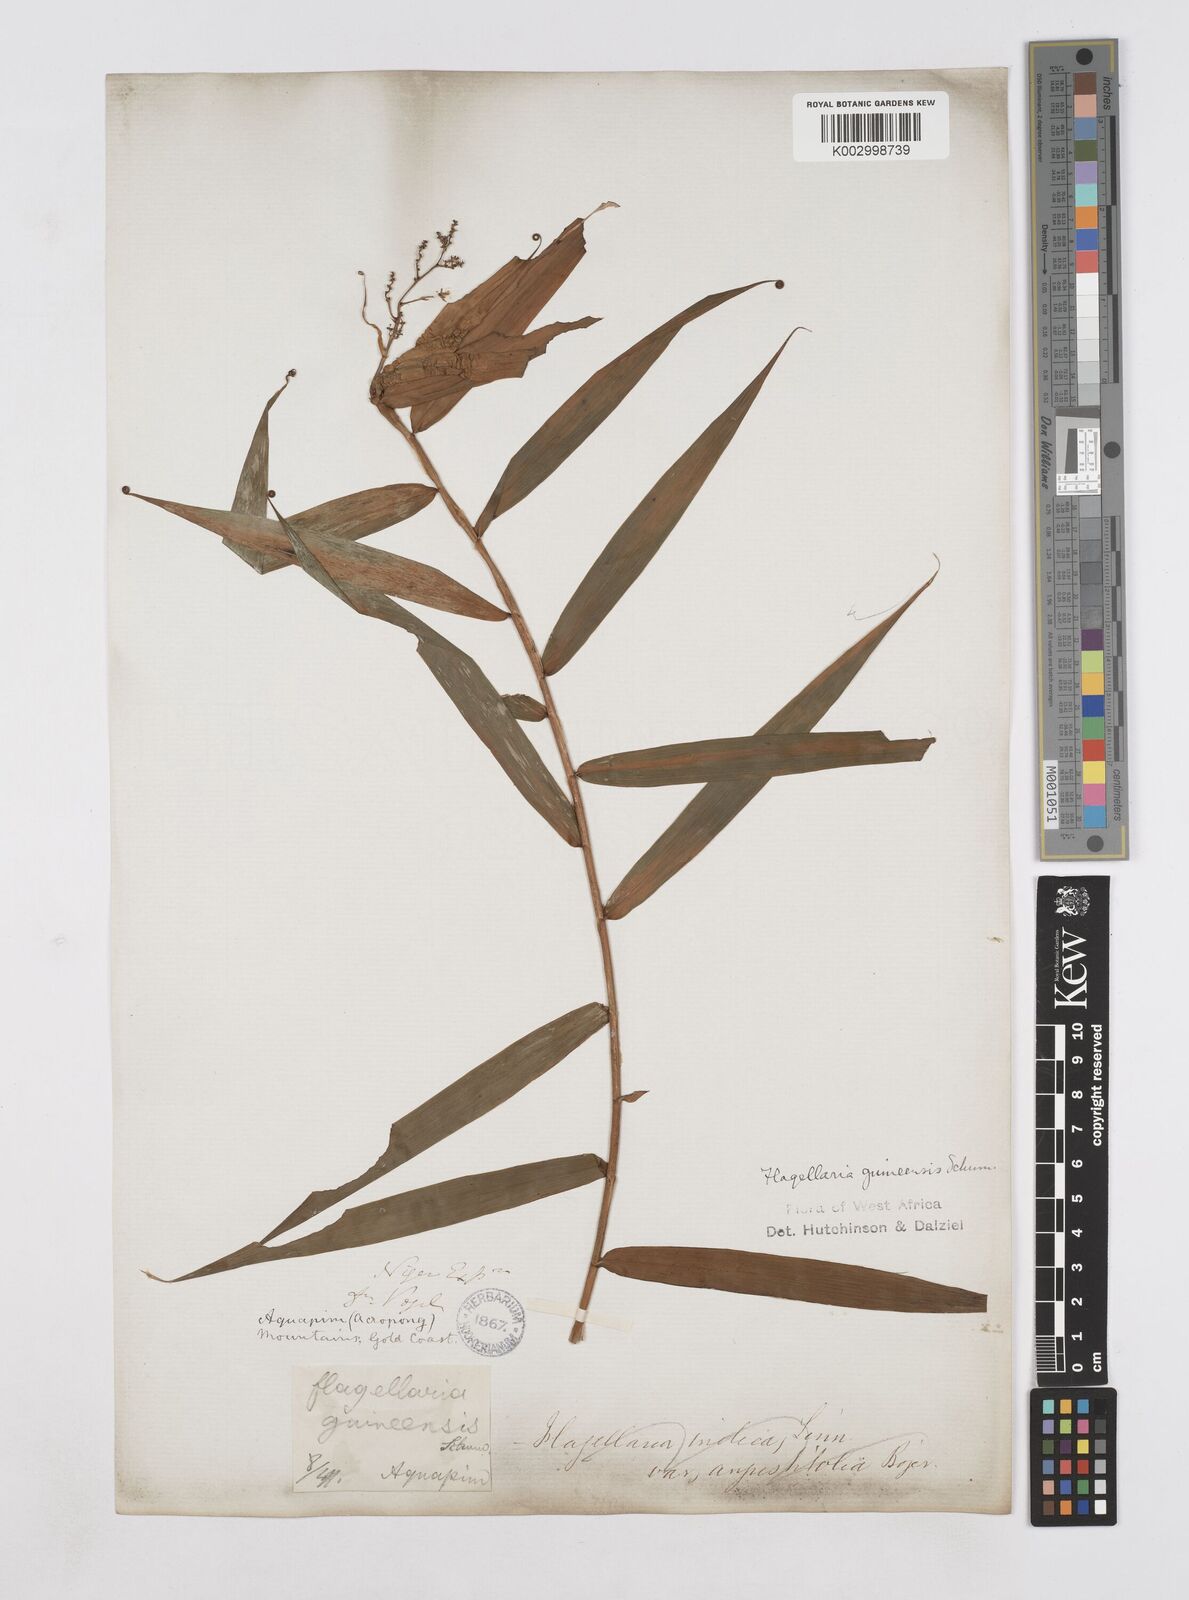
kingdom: Plantae
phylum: Tracheophyta
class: Liliopsida
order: Poales
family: Flagellariaceae
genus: Flagellaria
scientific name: Flagellaria guineensis
